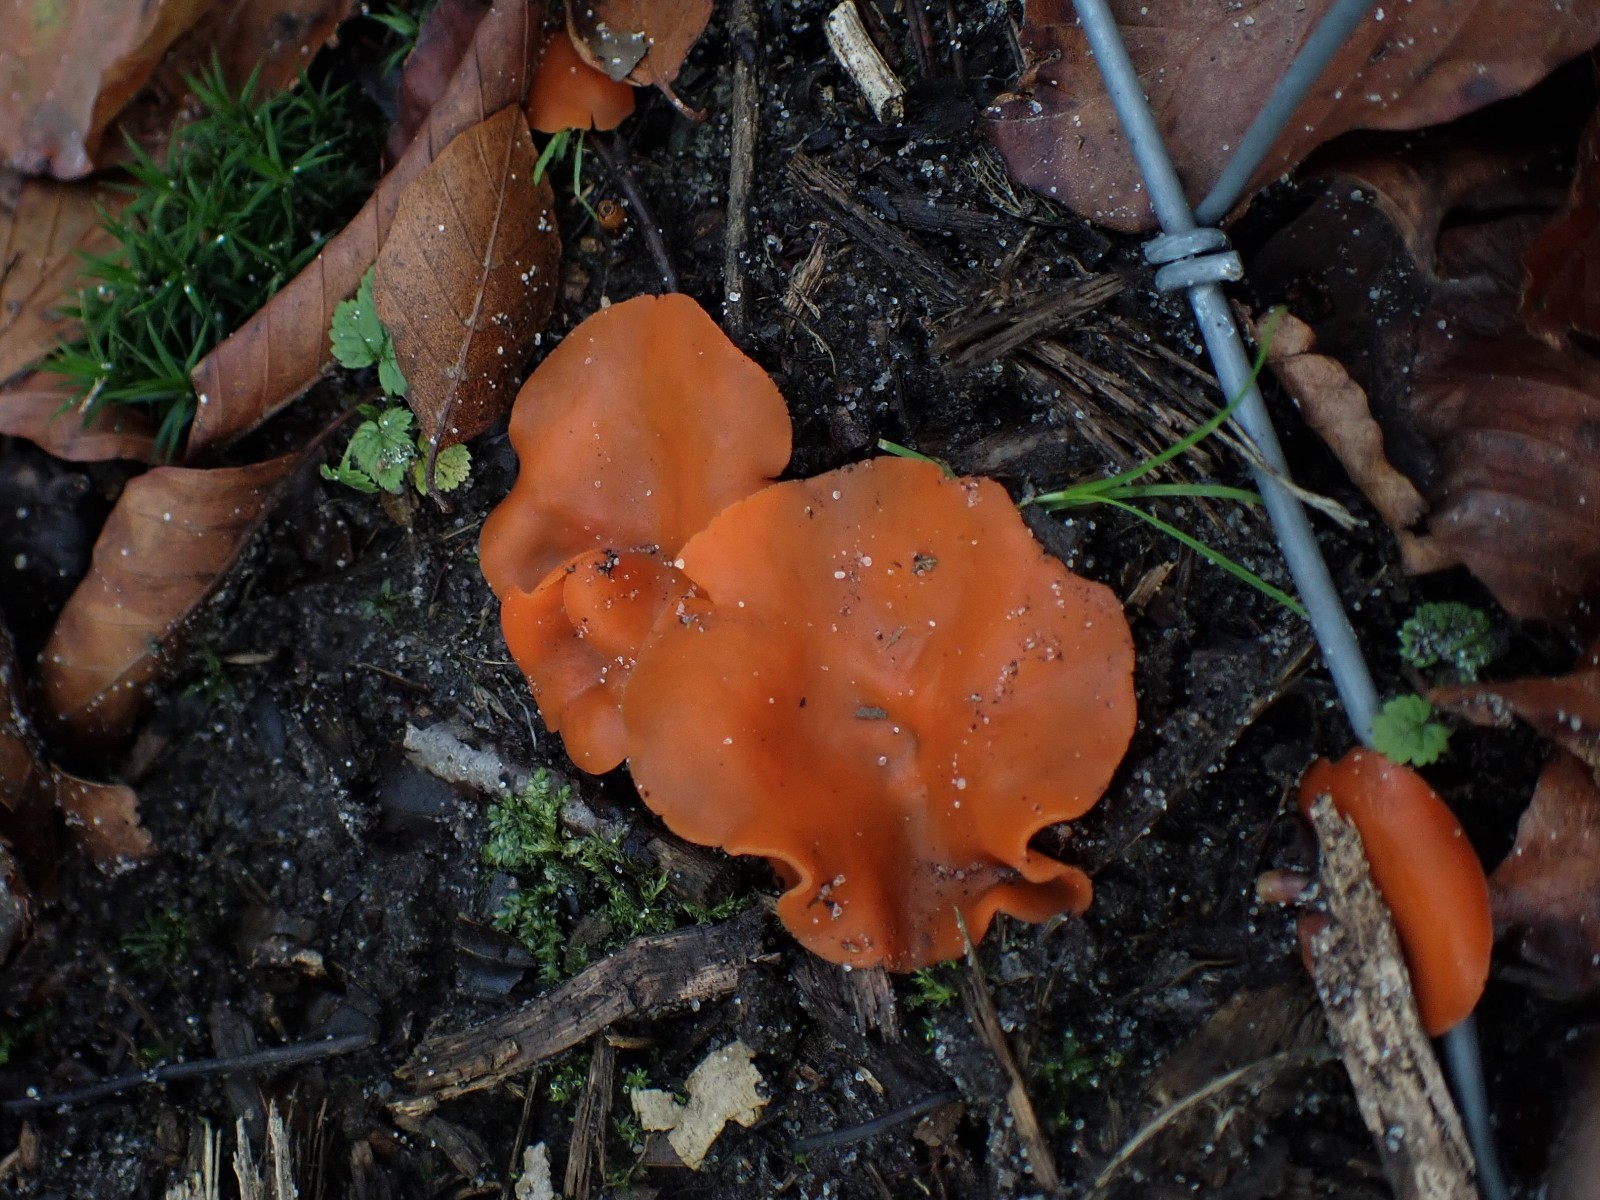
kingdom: Fungi
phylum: Ascomycota
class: Pezizomycetes
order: Pezizales
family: Pyronemataceae
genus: Aleuria
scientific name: Aleuria aurantia
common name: almindelig orangebæger
